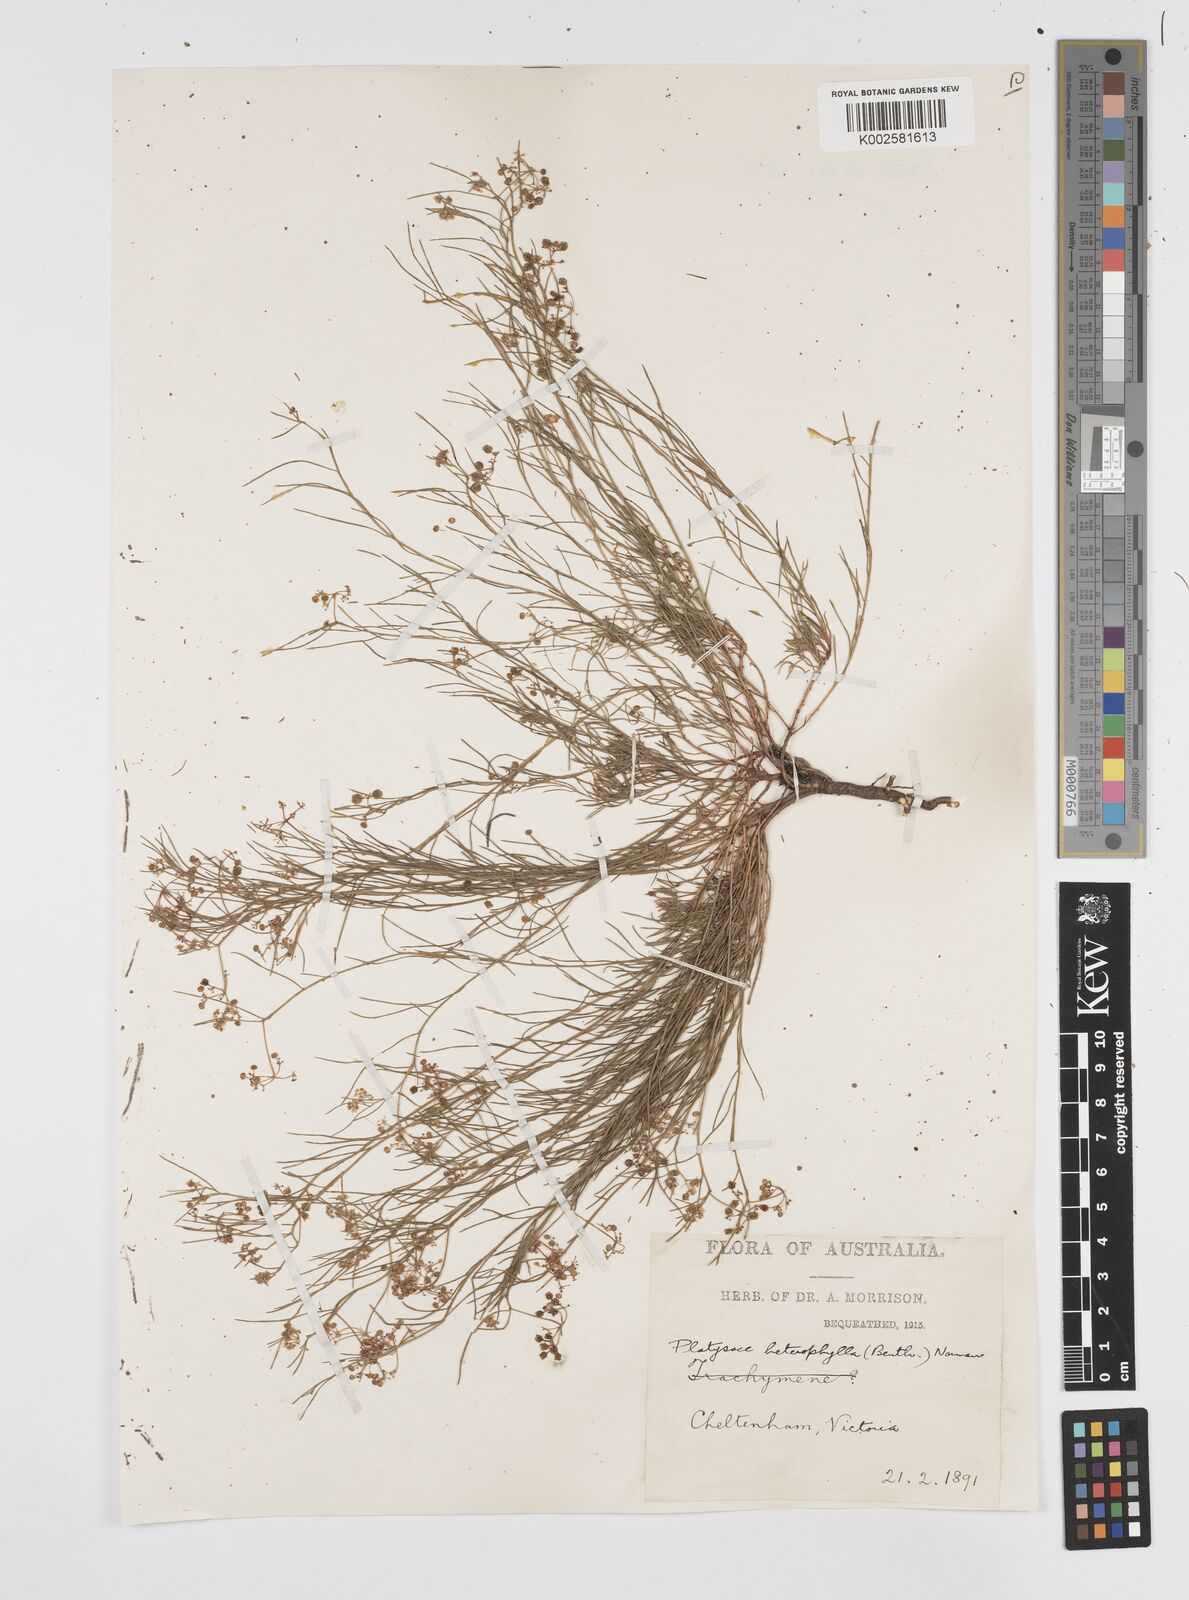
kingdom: Plantae
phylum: Tracheophyta
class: Magnoliopsida
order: Apiales
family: Apiaceae
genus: Platysace
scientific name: Platysace heterophylla
